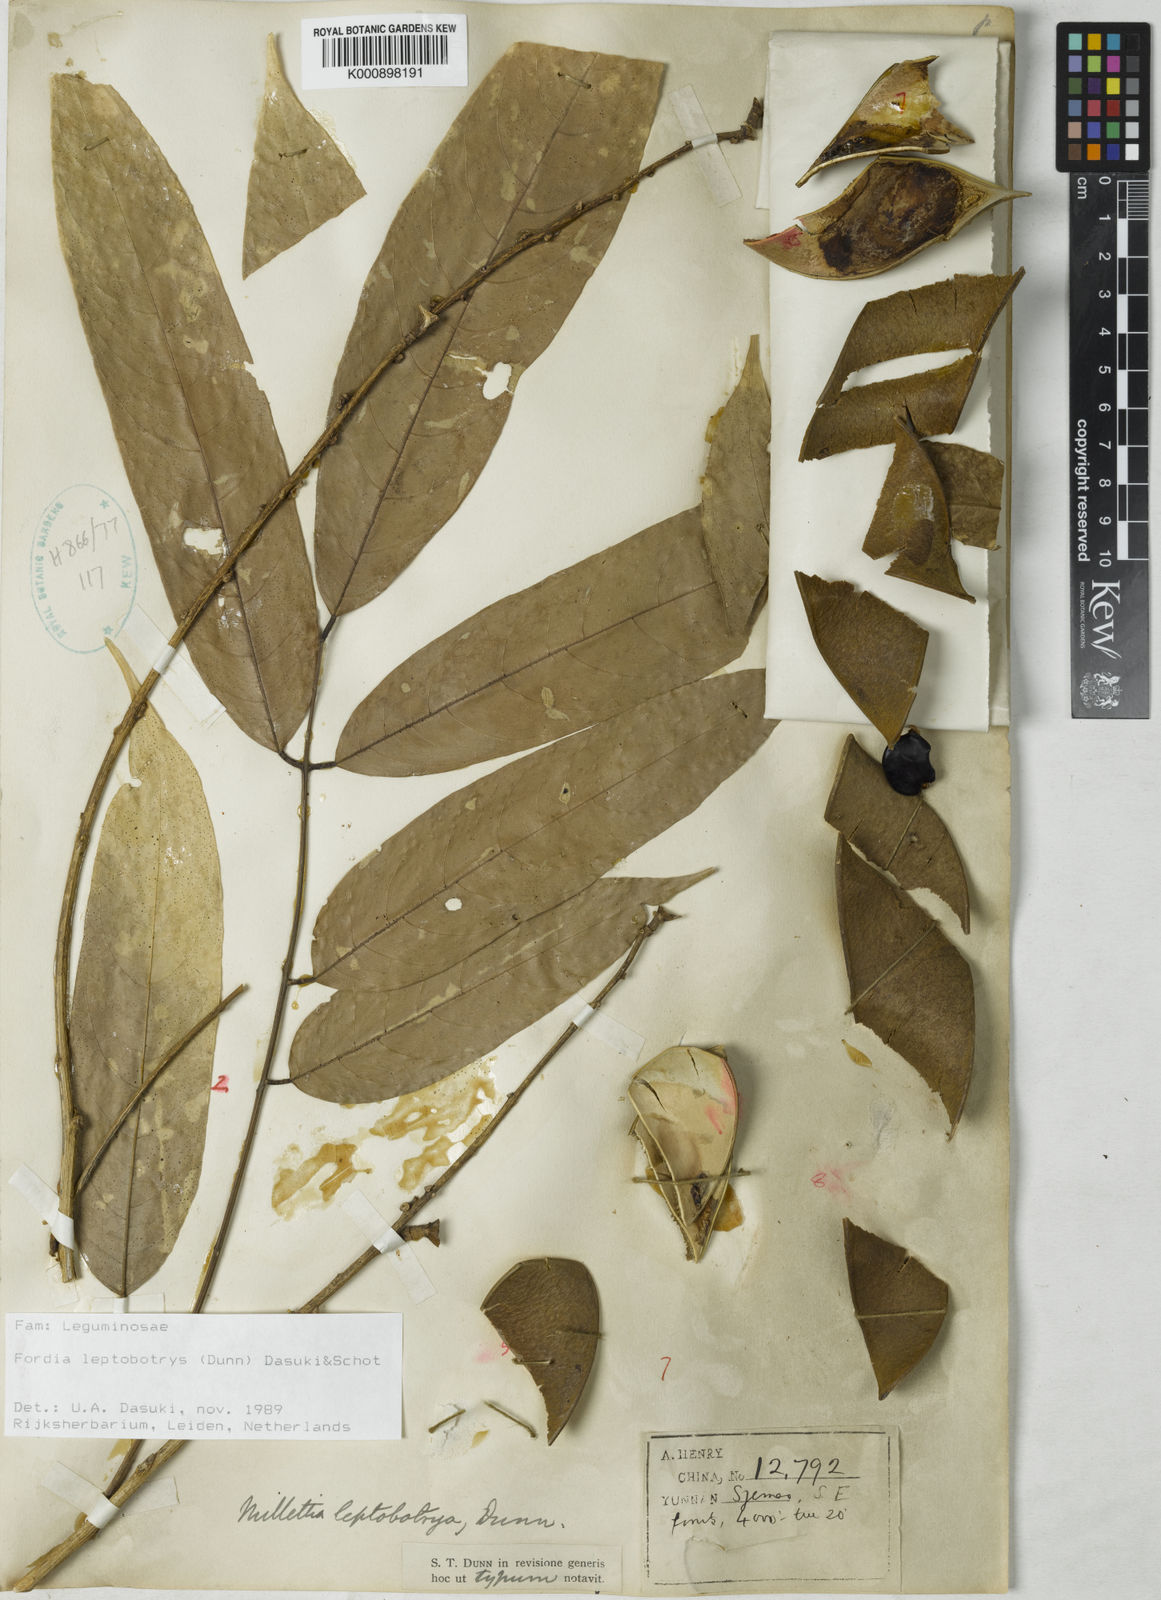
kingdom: Plantae
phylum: Tracheophyta
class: Magnoliopsida
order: Fabales
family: Fabaceae
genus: Fordia
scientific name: Fordia
